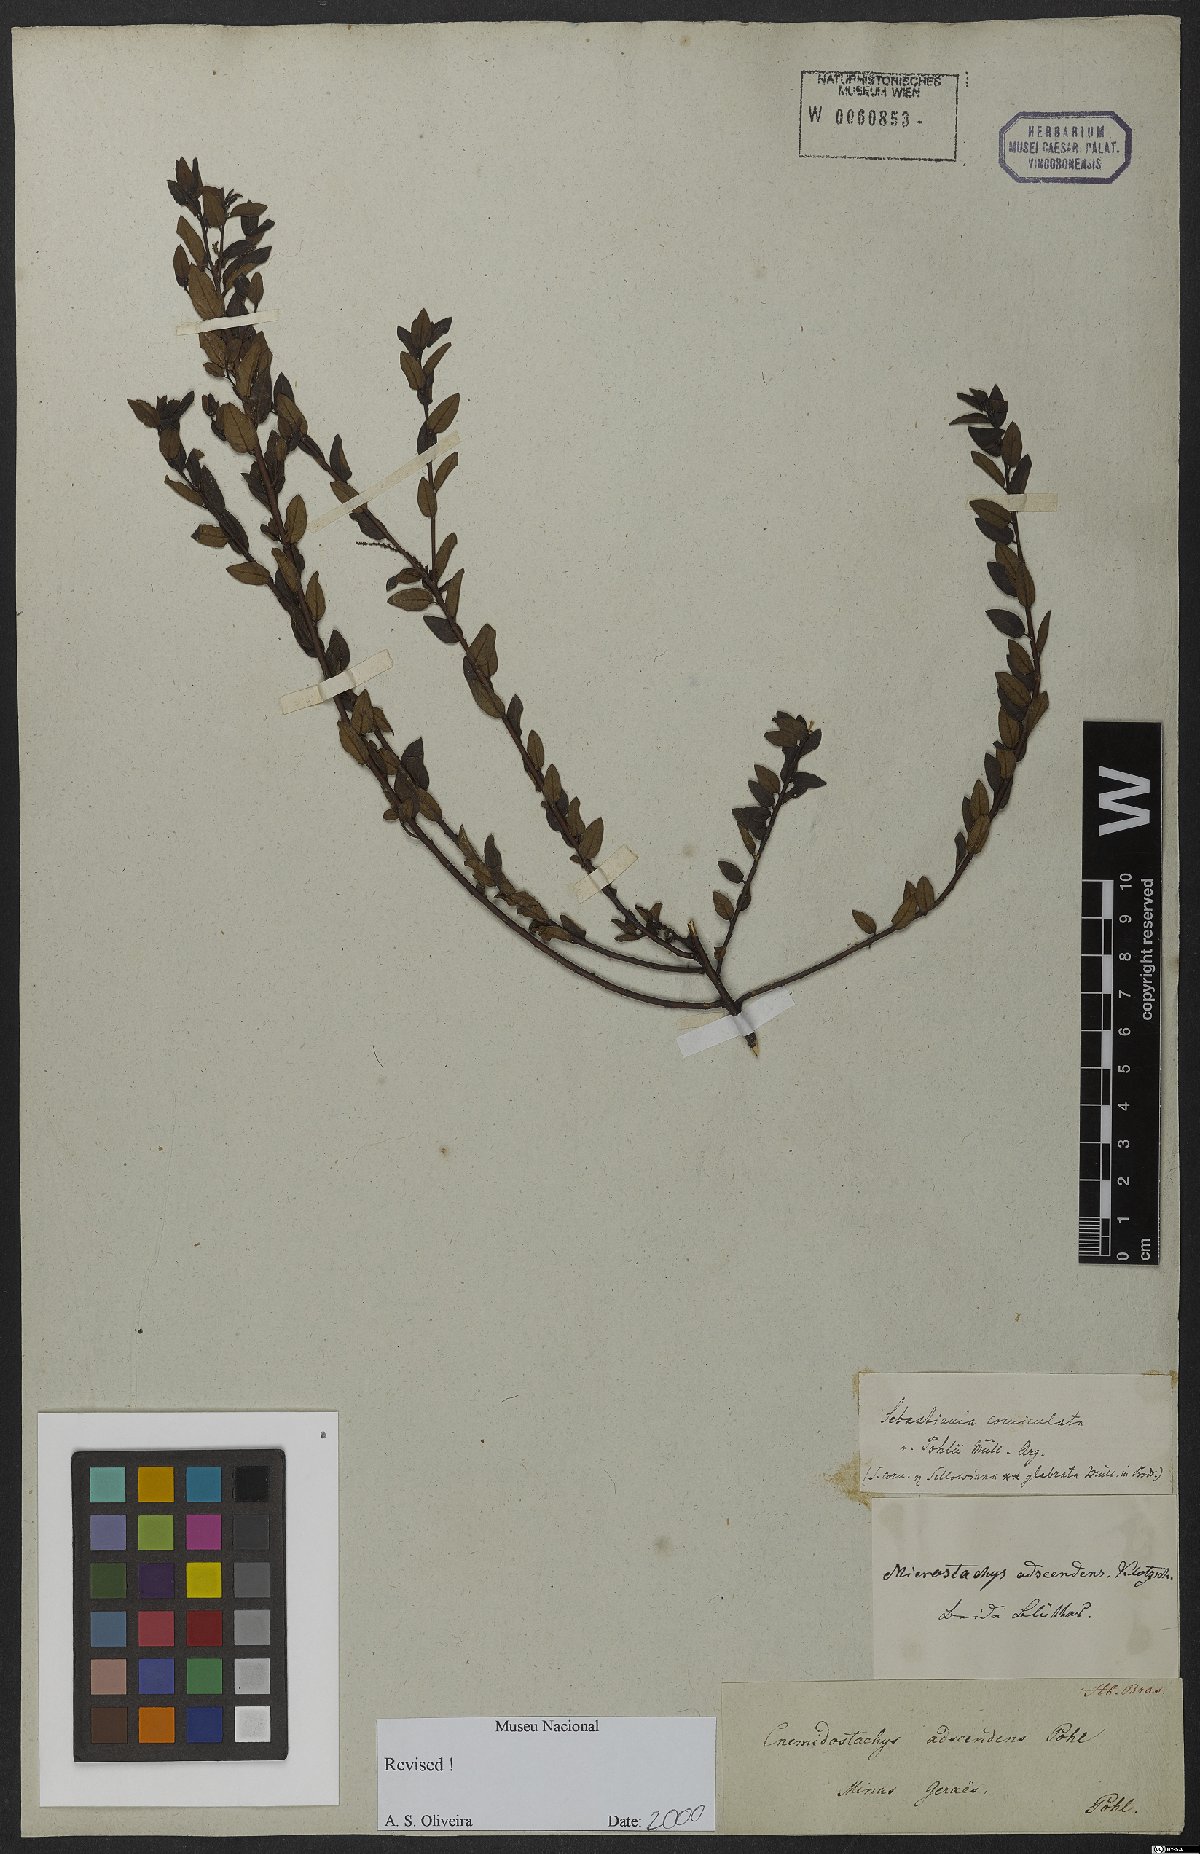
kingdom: Plantae
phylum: Tracheophyta
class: Magnoliopsida
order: Malpighiales
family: Euphorbiaceae
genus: Microstachys
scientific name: Microstachys corniculata
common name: Hato tejas
